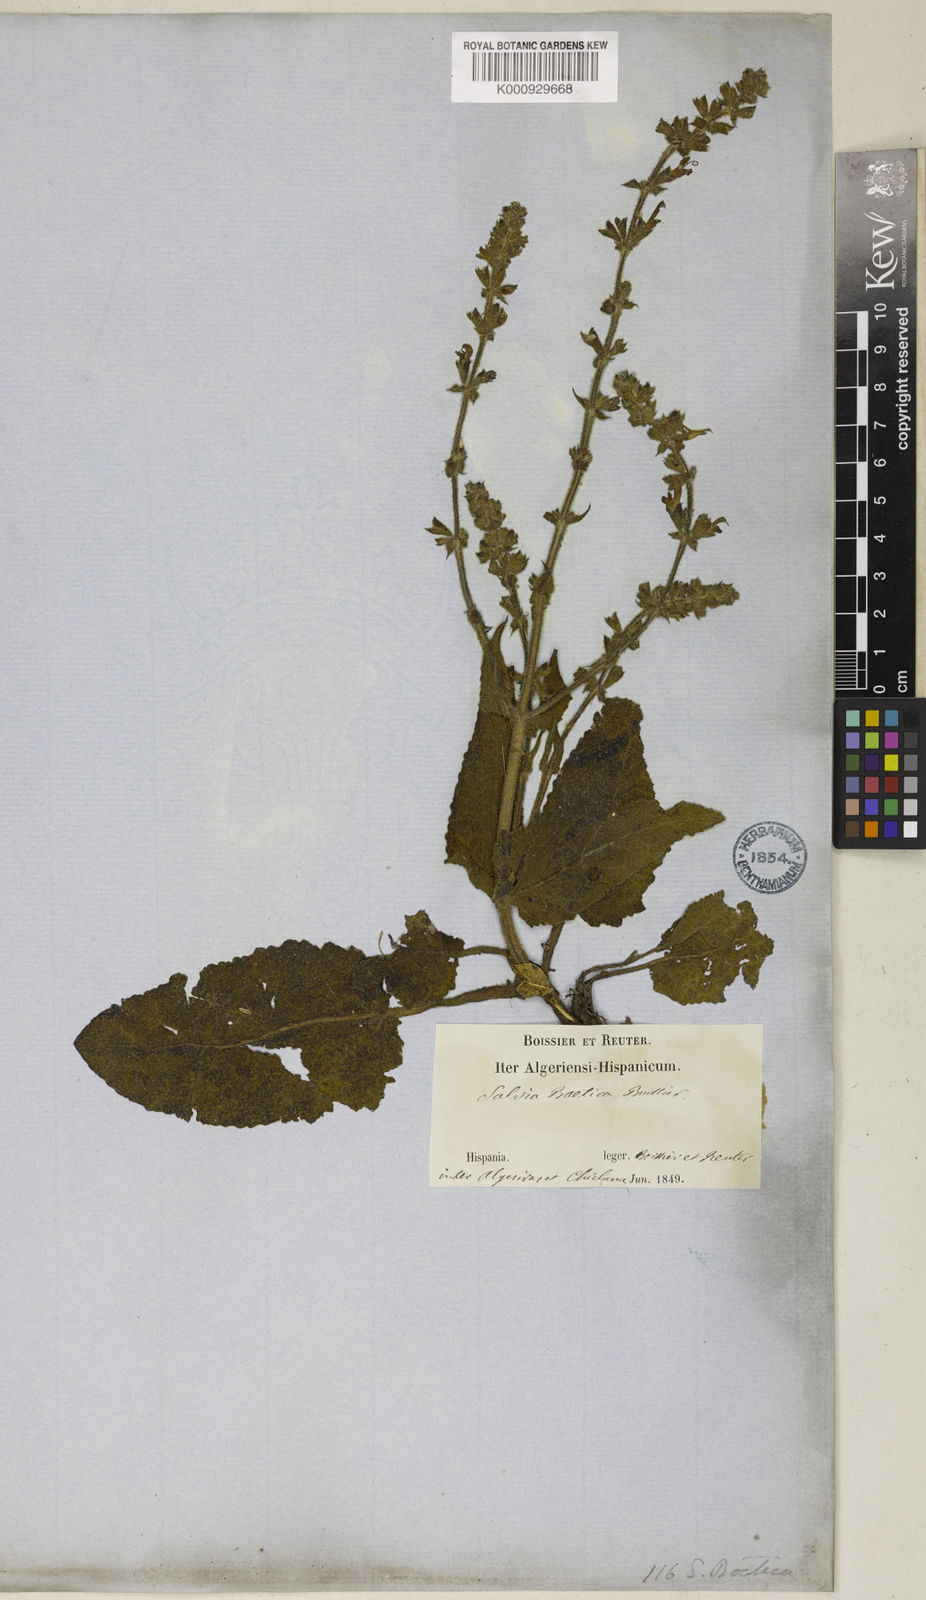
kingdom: Plantae
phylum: Tracheophyta
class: Magnoliopsida
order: Lamiales
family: Lamiaceae
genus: Salvia
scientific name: Salvia sclareoides
